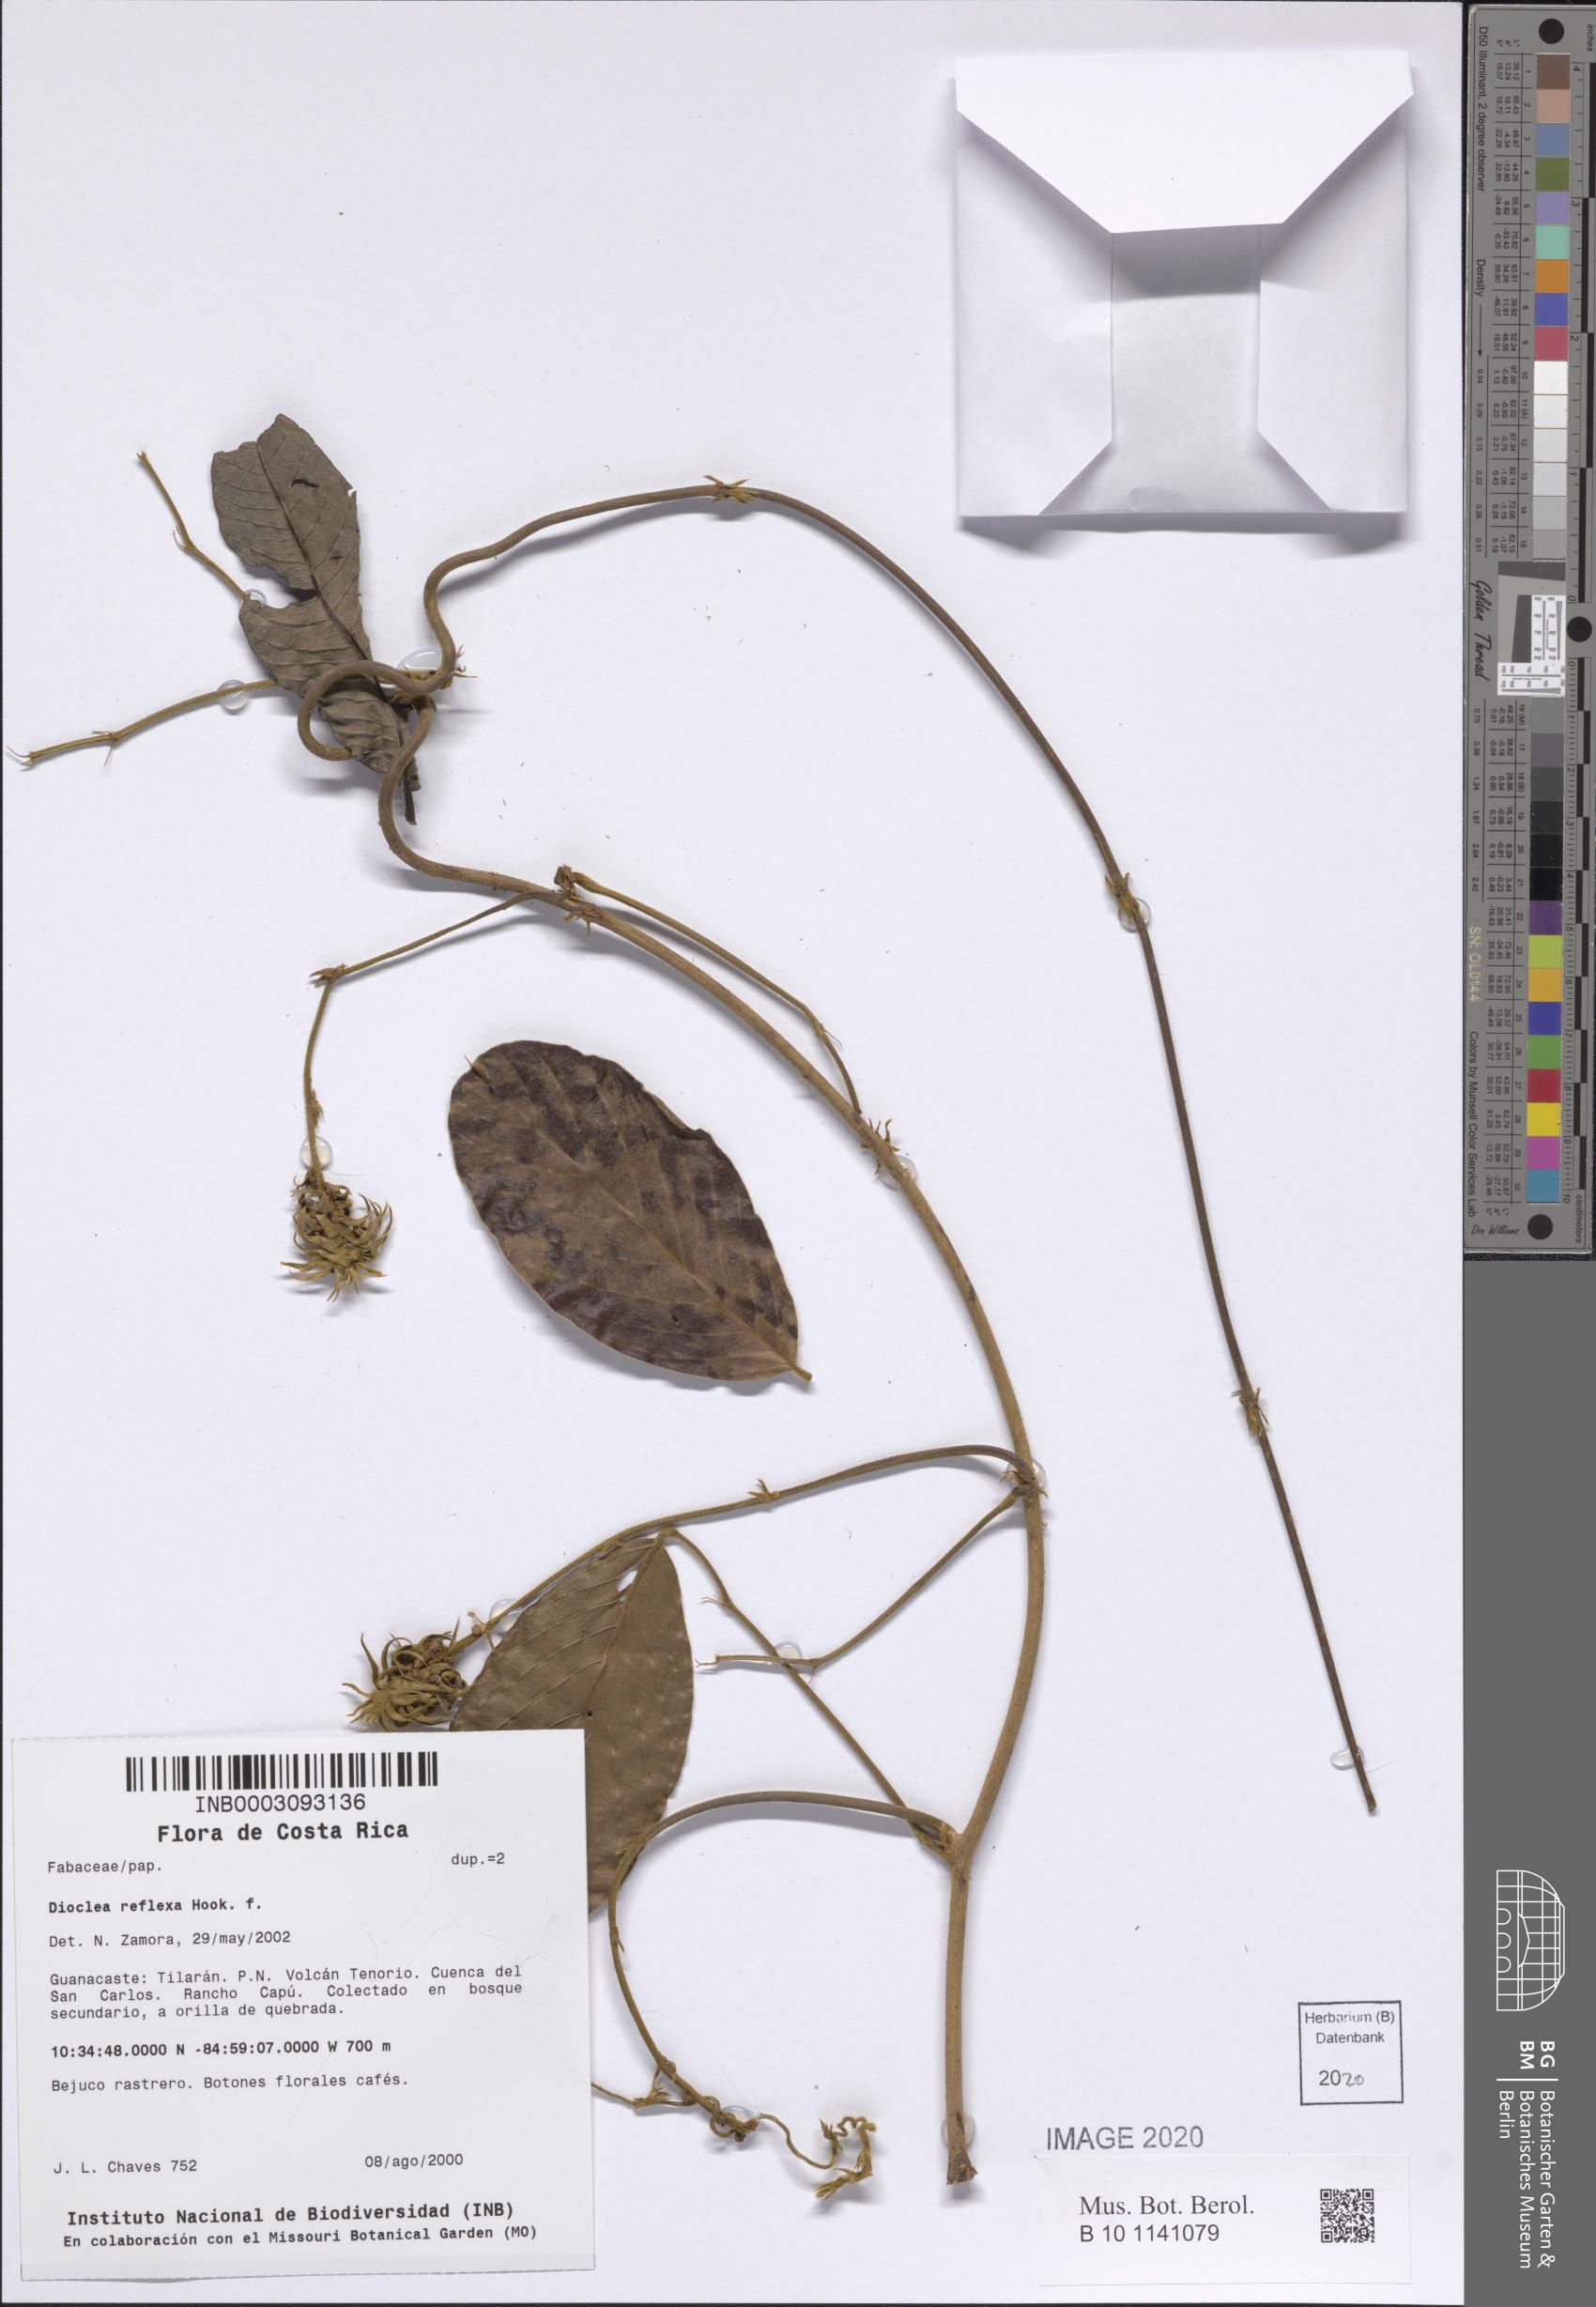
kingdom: Plantae
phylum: Tracheophyta
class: Magnoliopsida
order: Fabales
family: Fabaceae
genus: Macropsychanthus
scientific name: Macropsychanthus comosus
